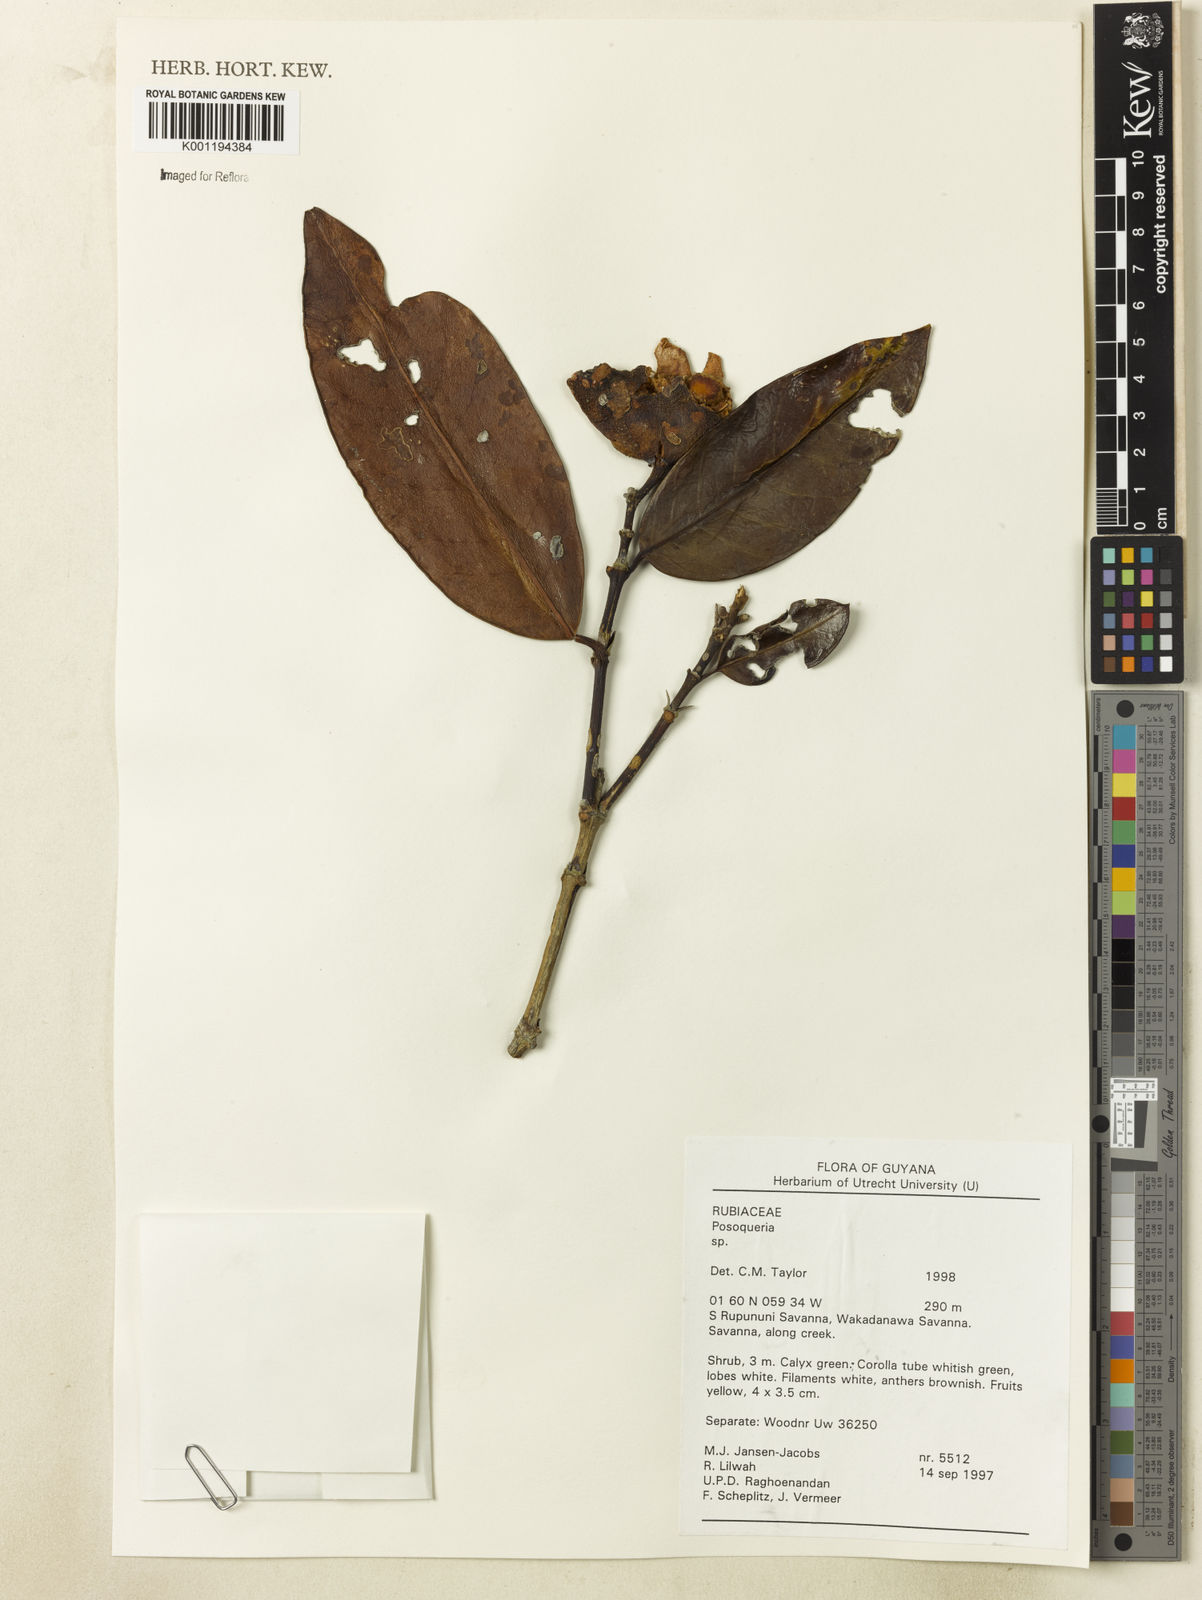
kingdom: Plantae
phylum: Tracheophyta
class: Magnoliopsida
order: Gentianales
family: Rubiaceae
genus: Posoqueria
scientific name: Posoqueria
